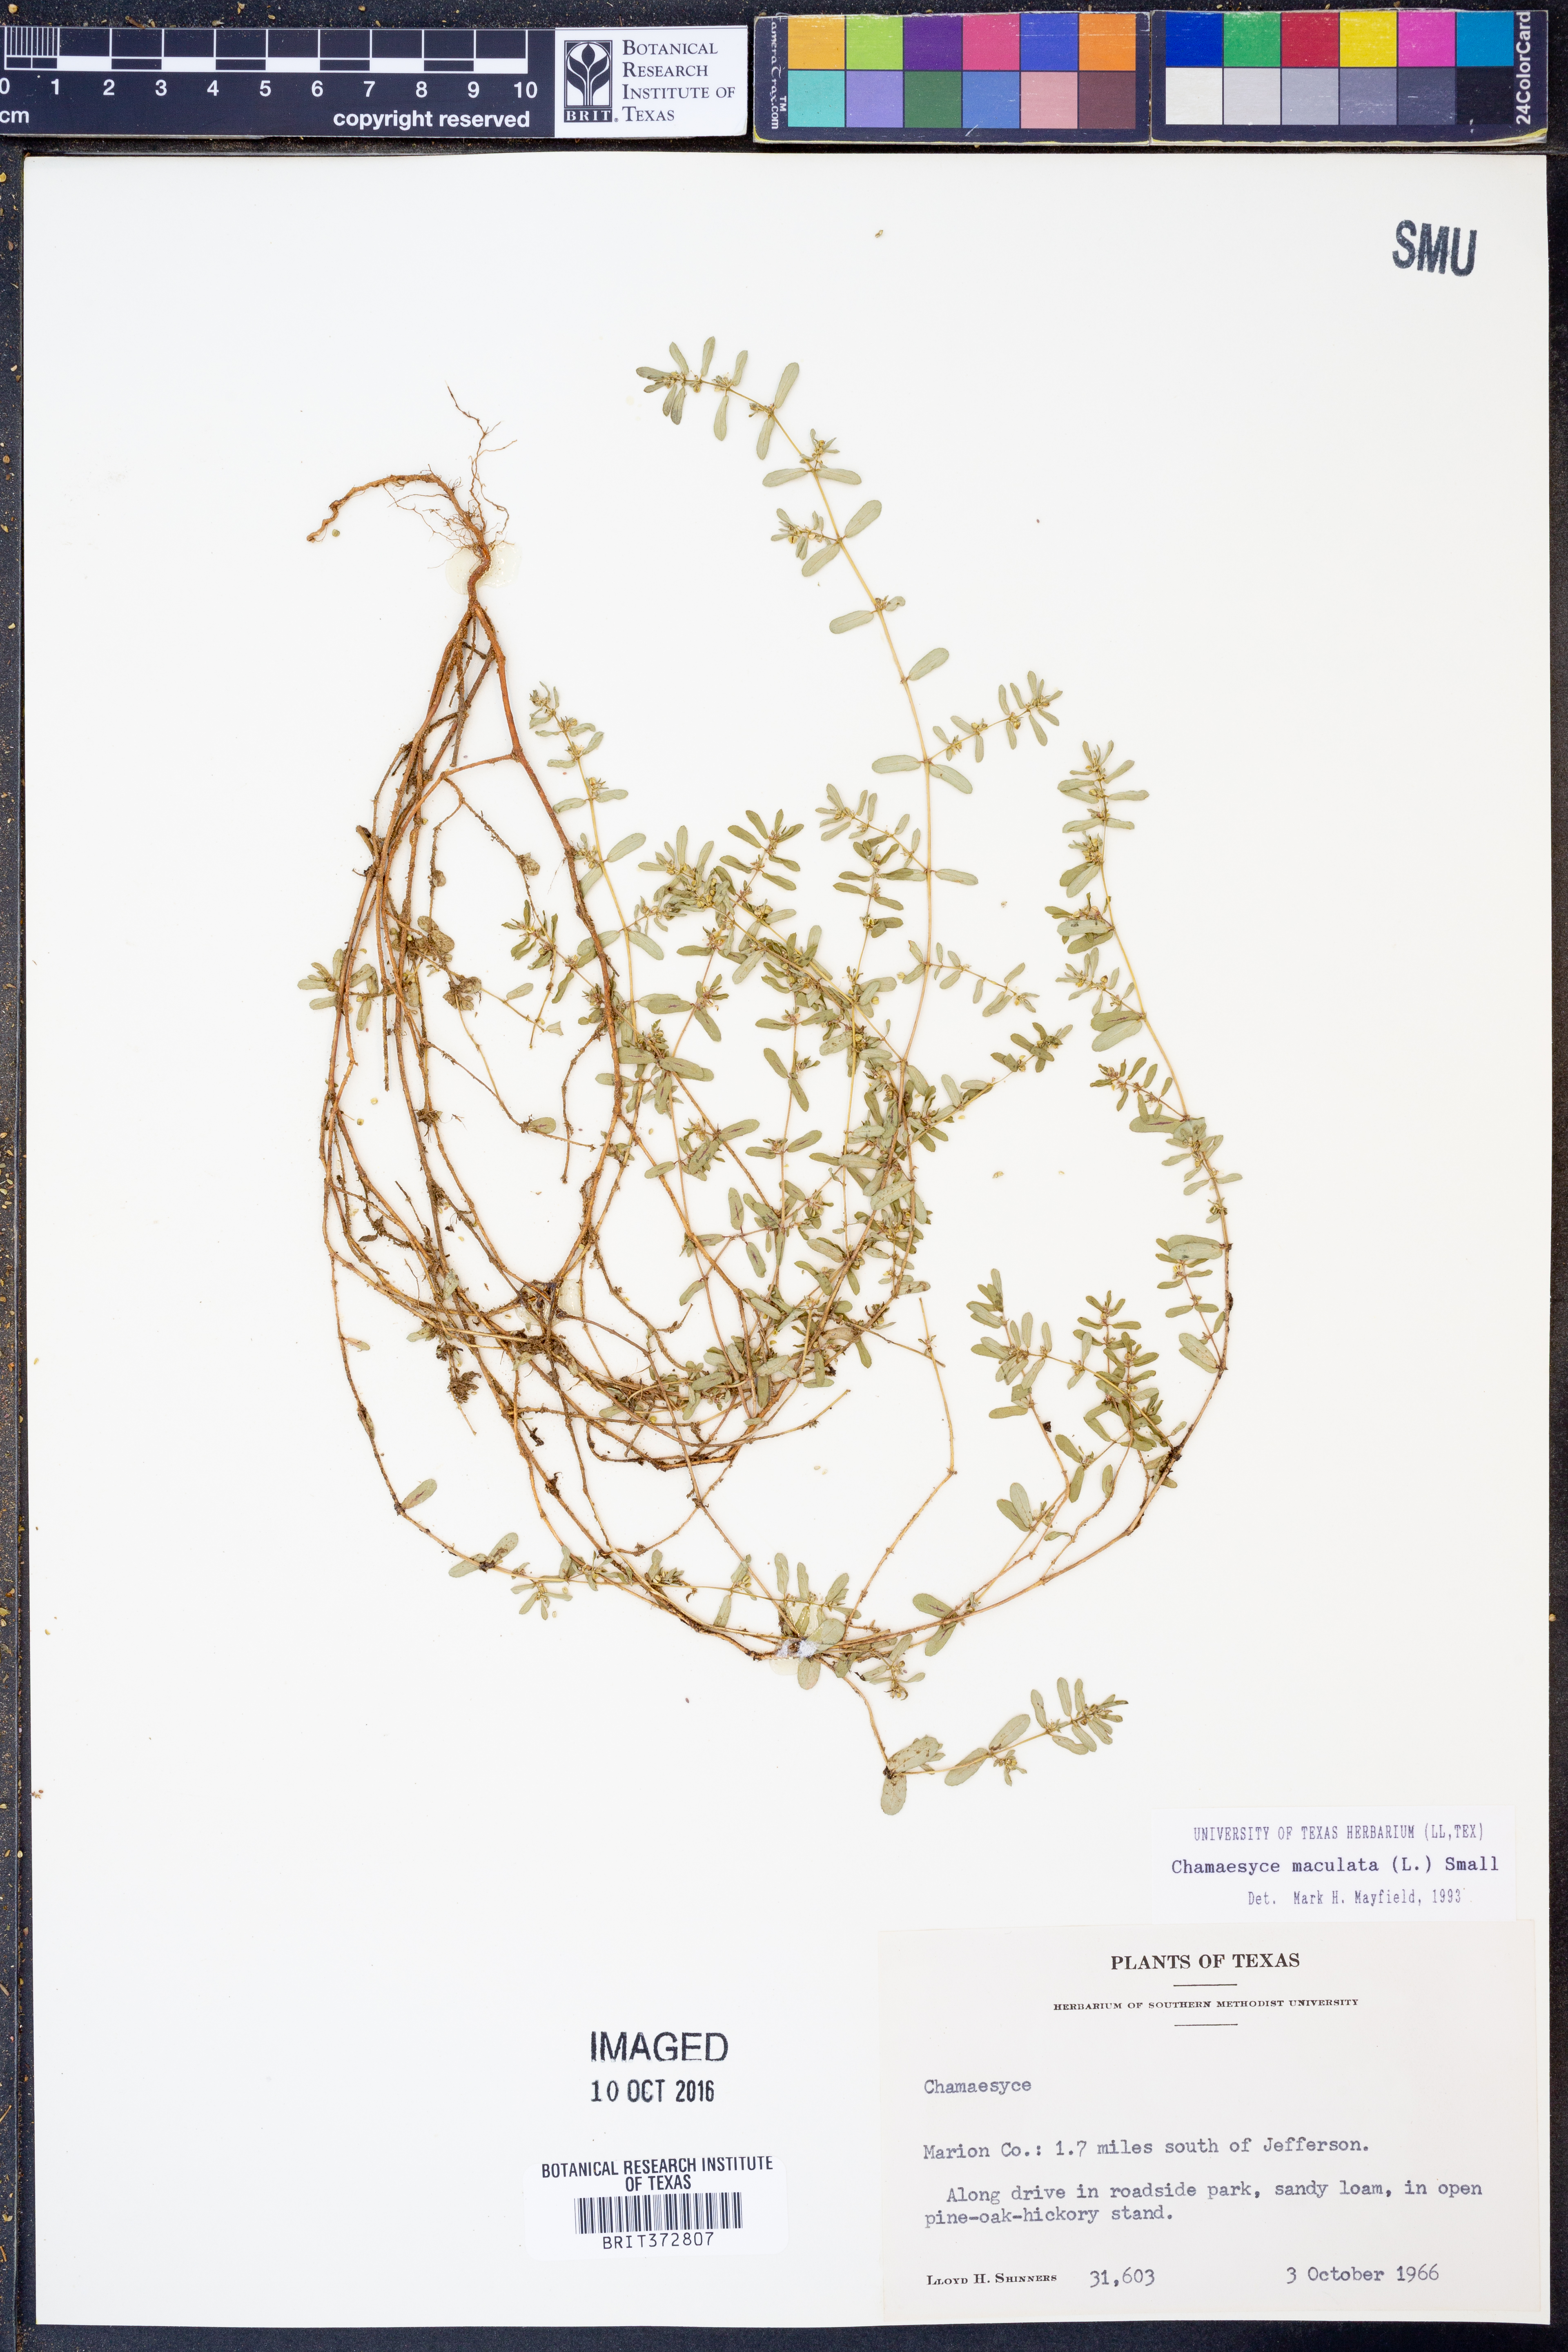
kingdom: Plantae
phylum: Tracheophyta
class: Magnoliopsida
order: Malpighiales
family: Euphorbiaceae
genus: Euphorbia
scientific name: Euphorbia maculata
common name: Spotted spurge
